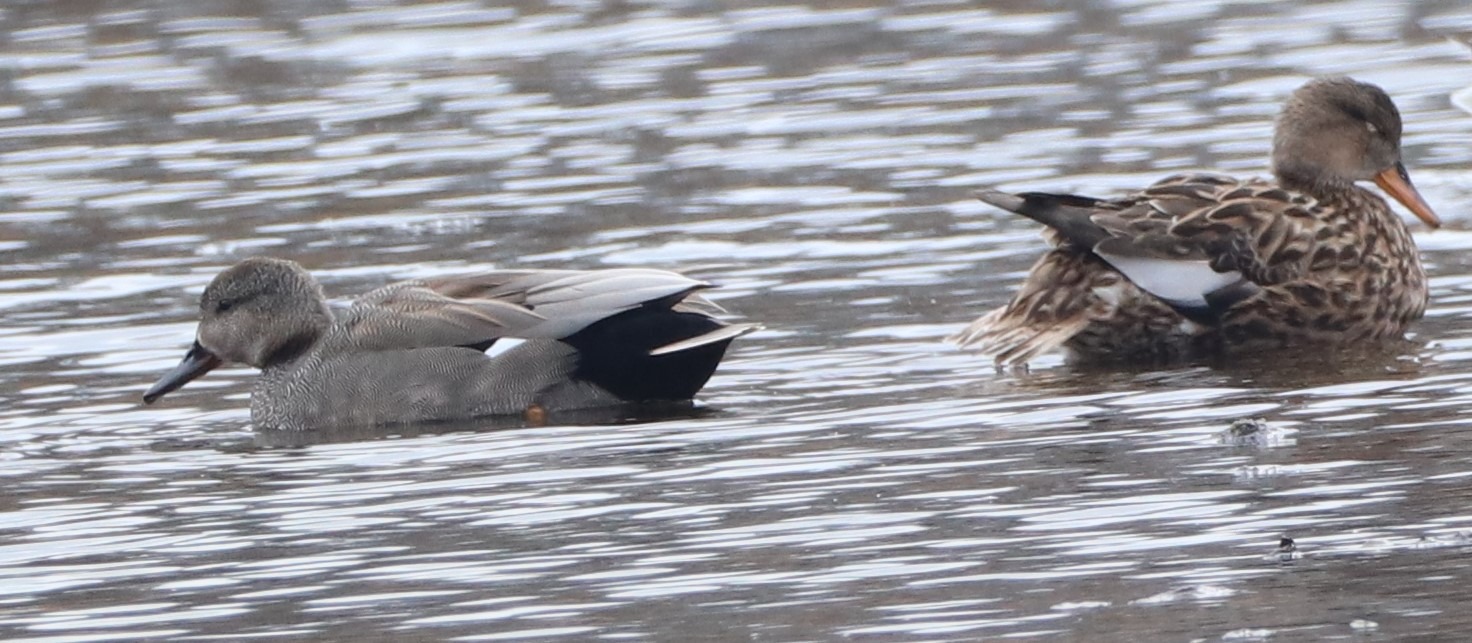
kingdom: Animalia
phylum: Chordata
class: Aves
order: Anseriformes
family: Anatidae
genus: Mareca
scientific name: Mareca strepera
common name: Knarand
